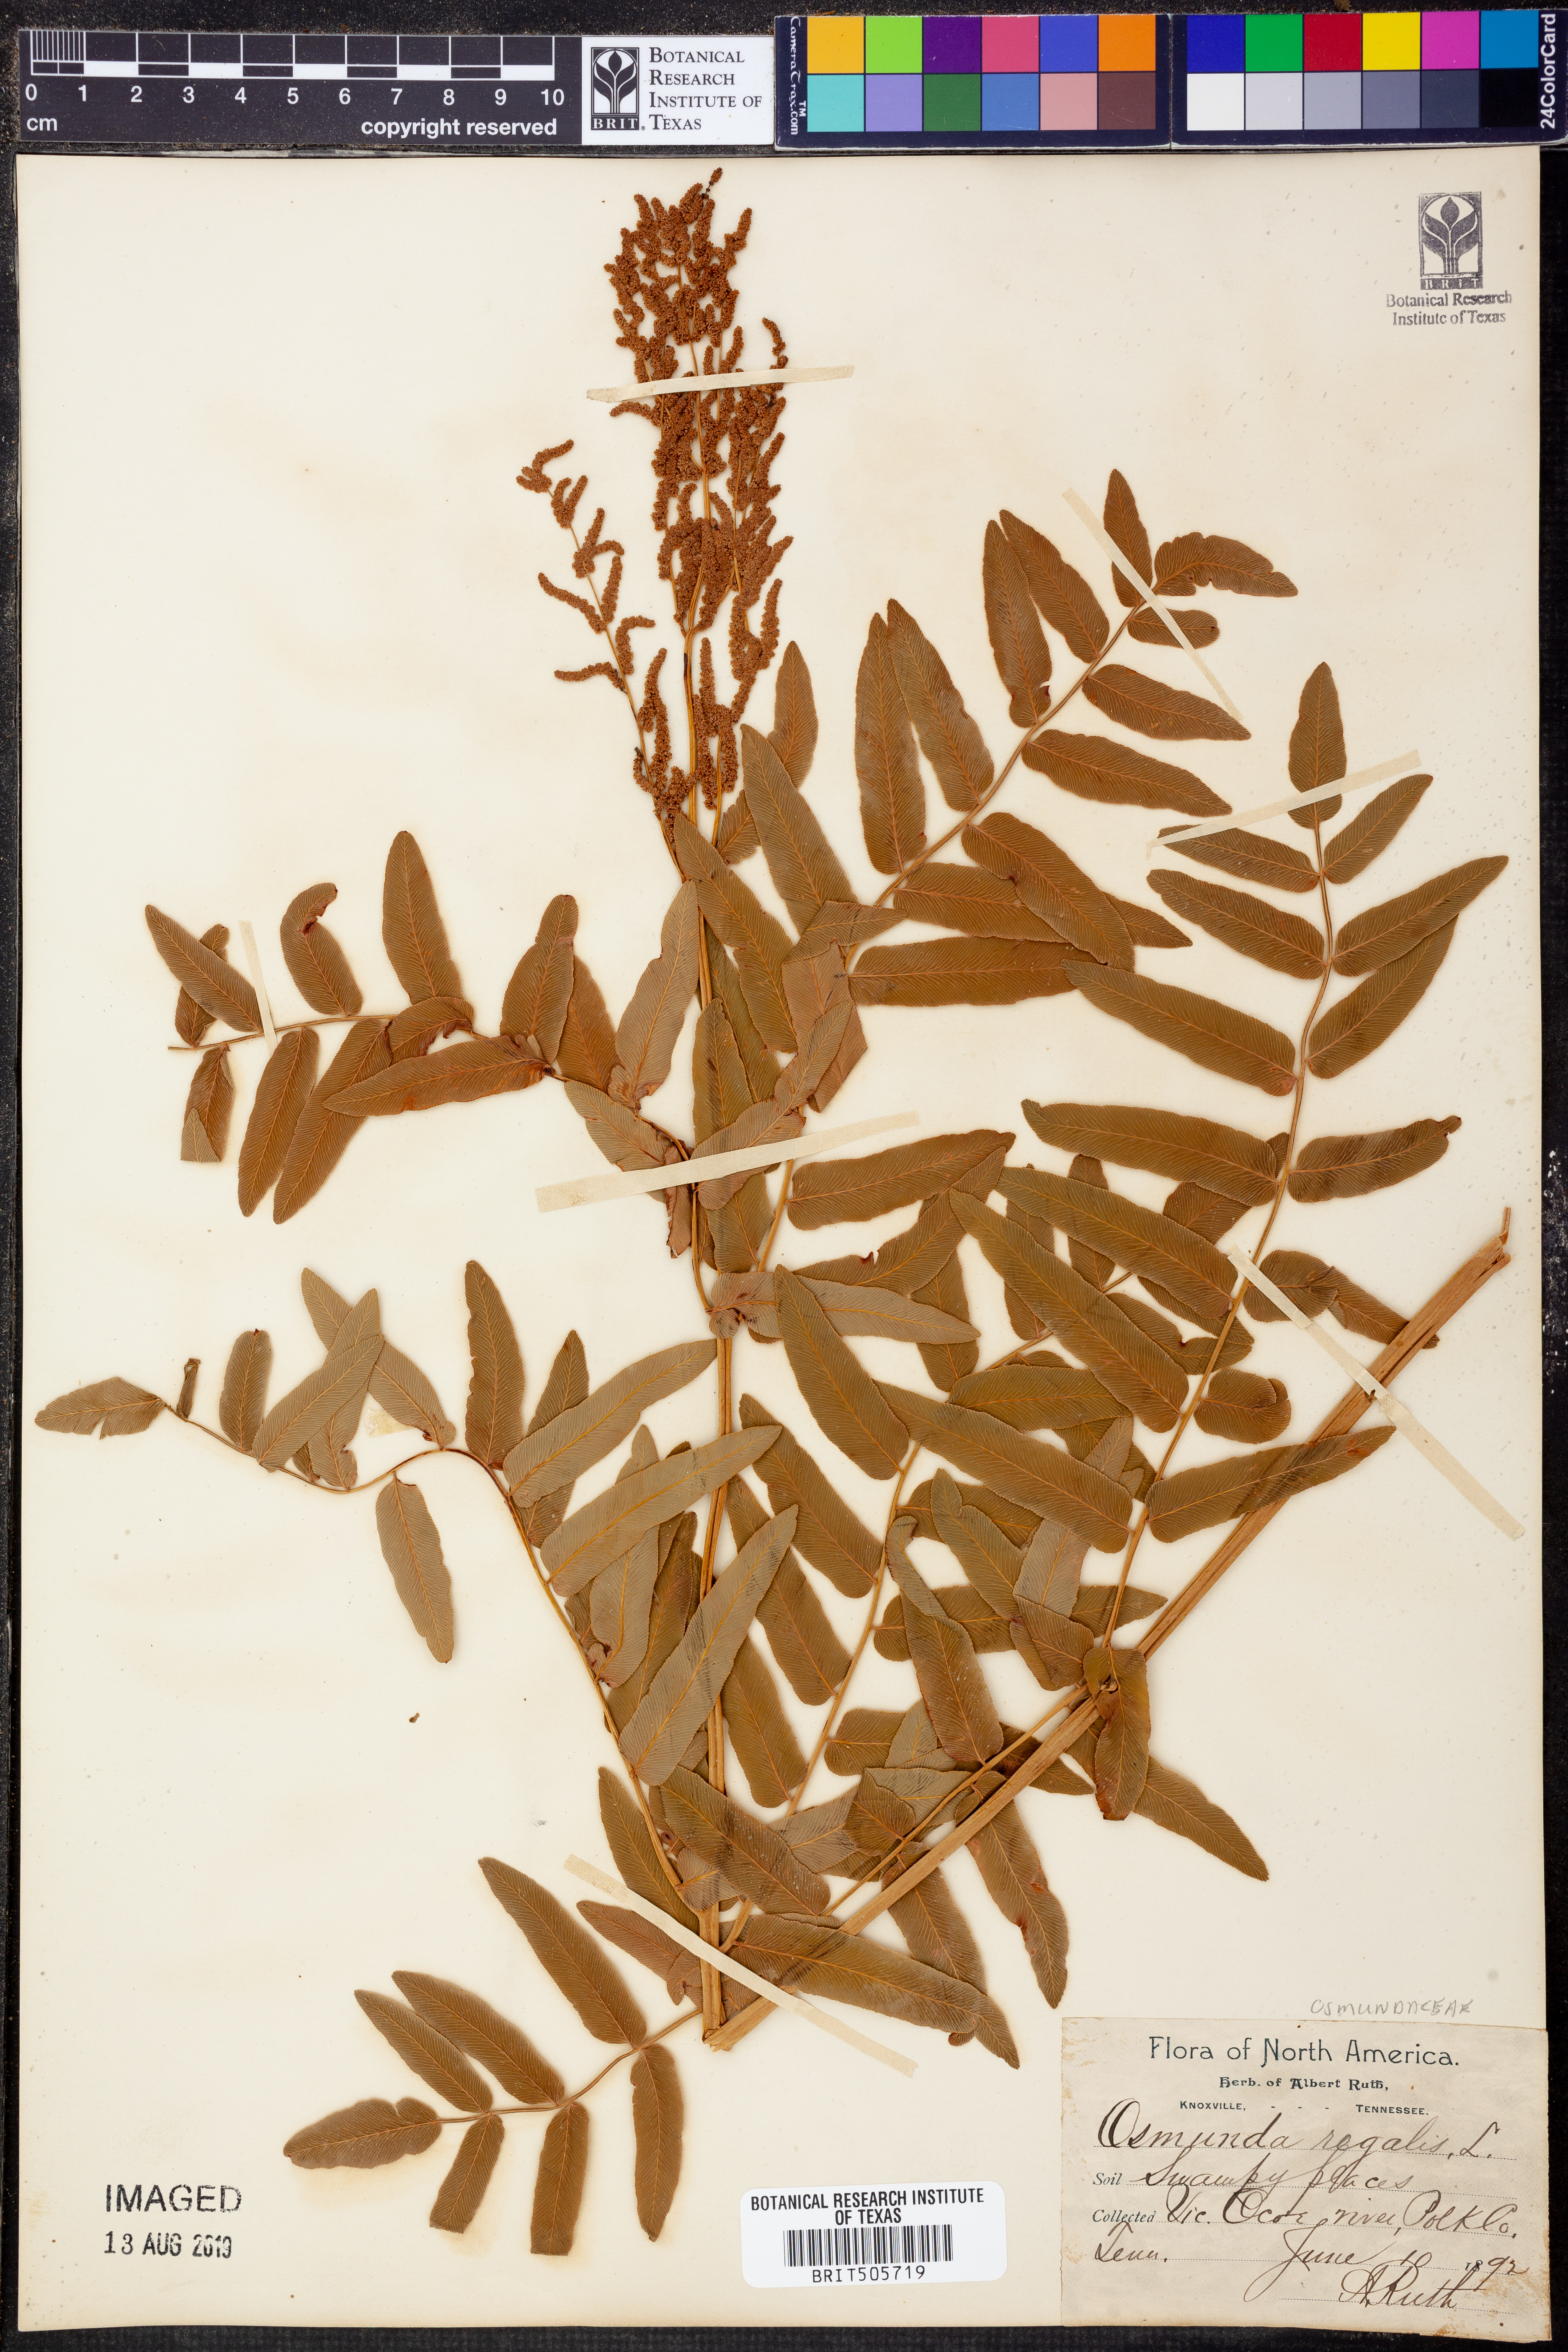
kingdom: Plantae
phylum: Tracheophyta
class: Polypodiopsida
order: Osmundales
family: Osmundaceae
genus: Osmunda
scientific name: Osmunda regalis
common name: Royal fern
